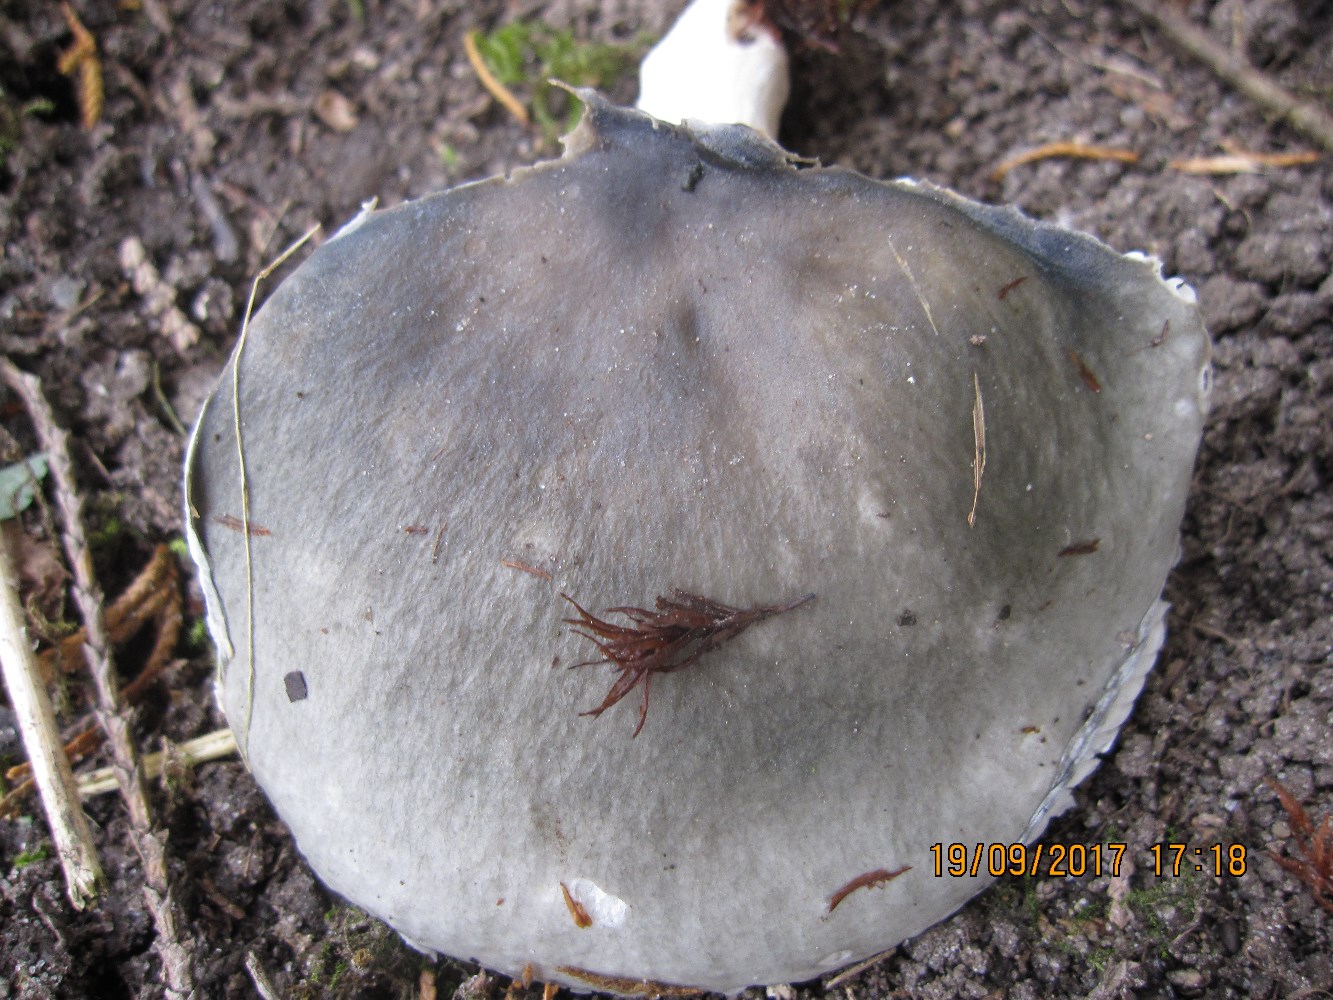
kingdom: Fungi
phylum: Basidiomycota
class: Agaricomycetes
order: Russulales
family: Russulaceae
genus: Russula
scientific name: Russula parazurea
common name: blågrå skørhat
